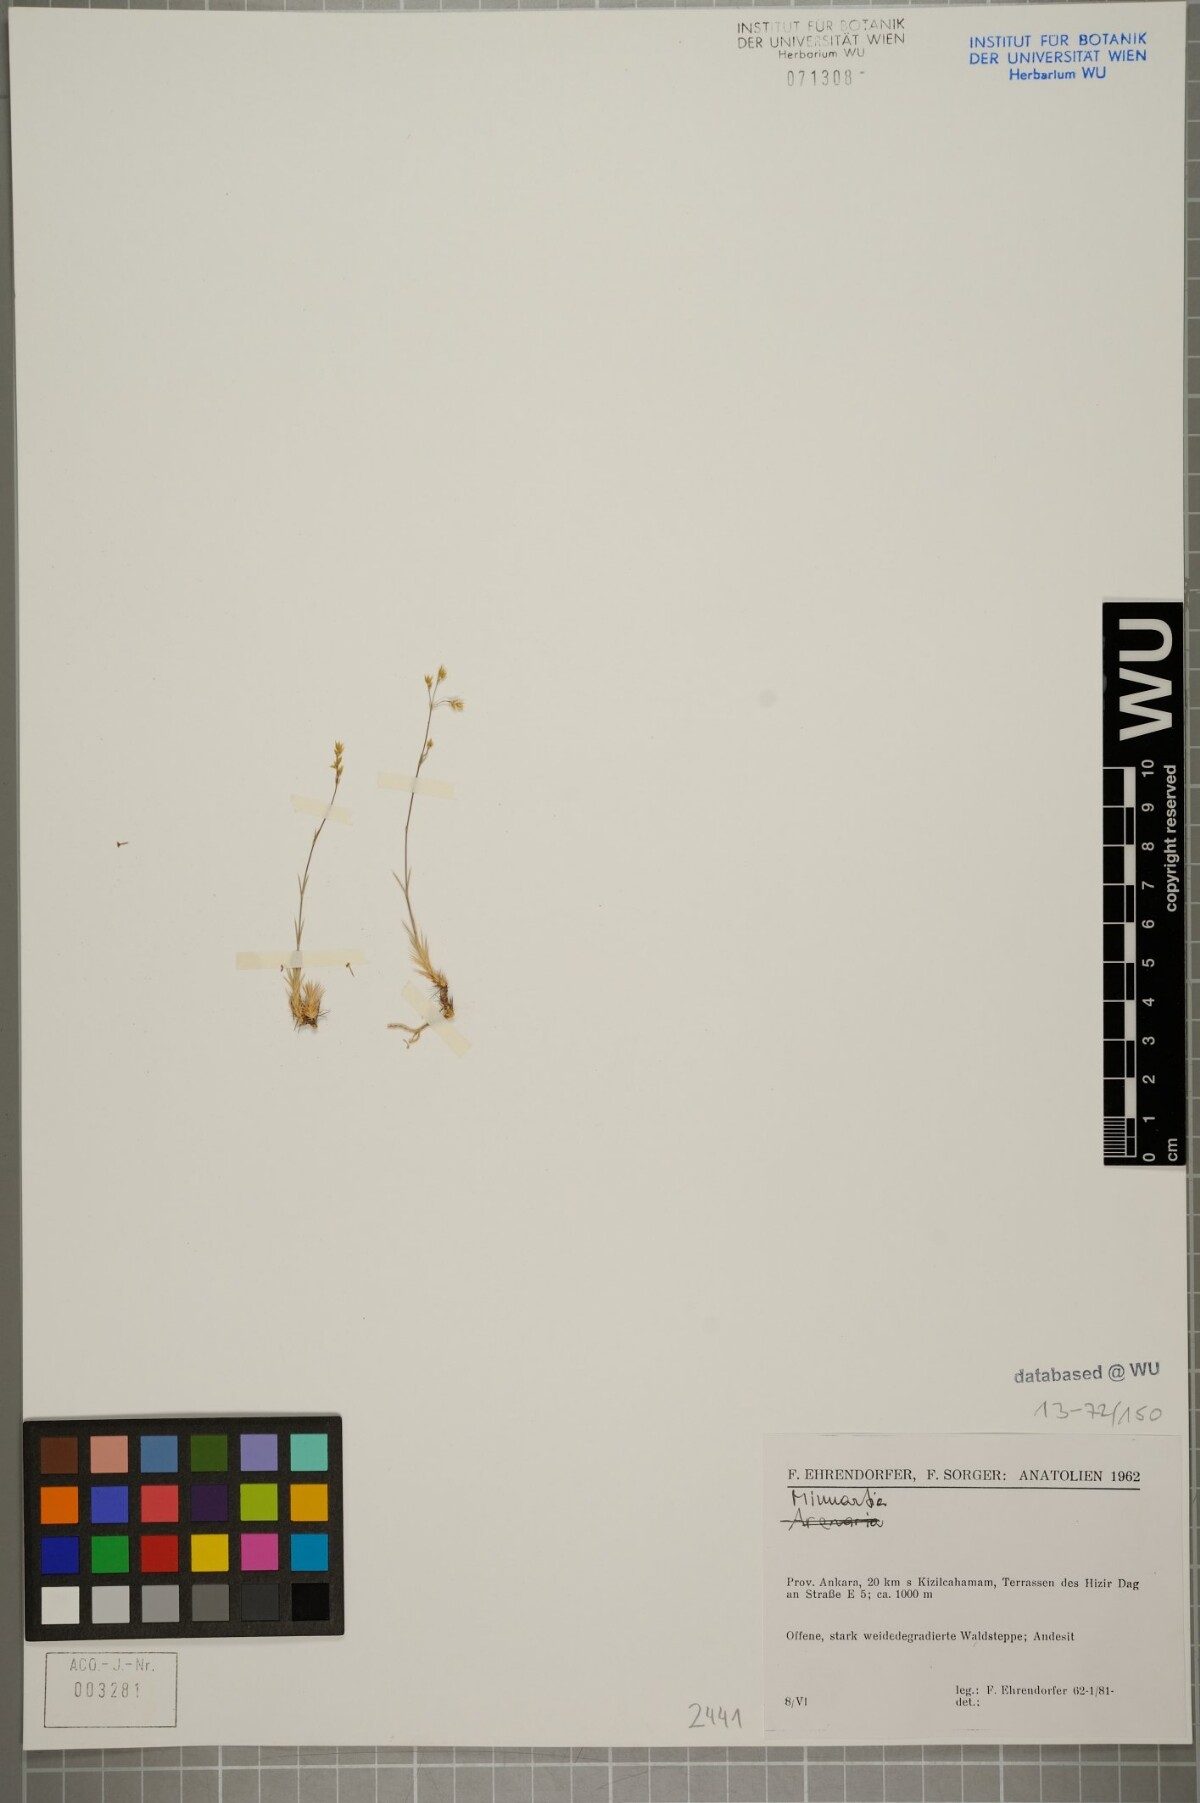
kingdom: Plantae
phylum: Tracheophyta
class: Magnoliopsida
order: Caryophyllales
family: Caryophyllaceae
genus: Eremogone
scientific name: Eremogone ledebouriana
